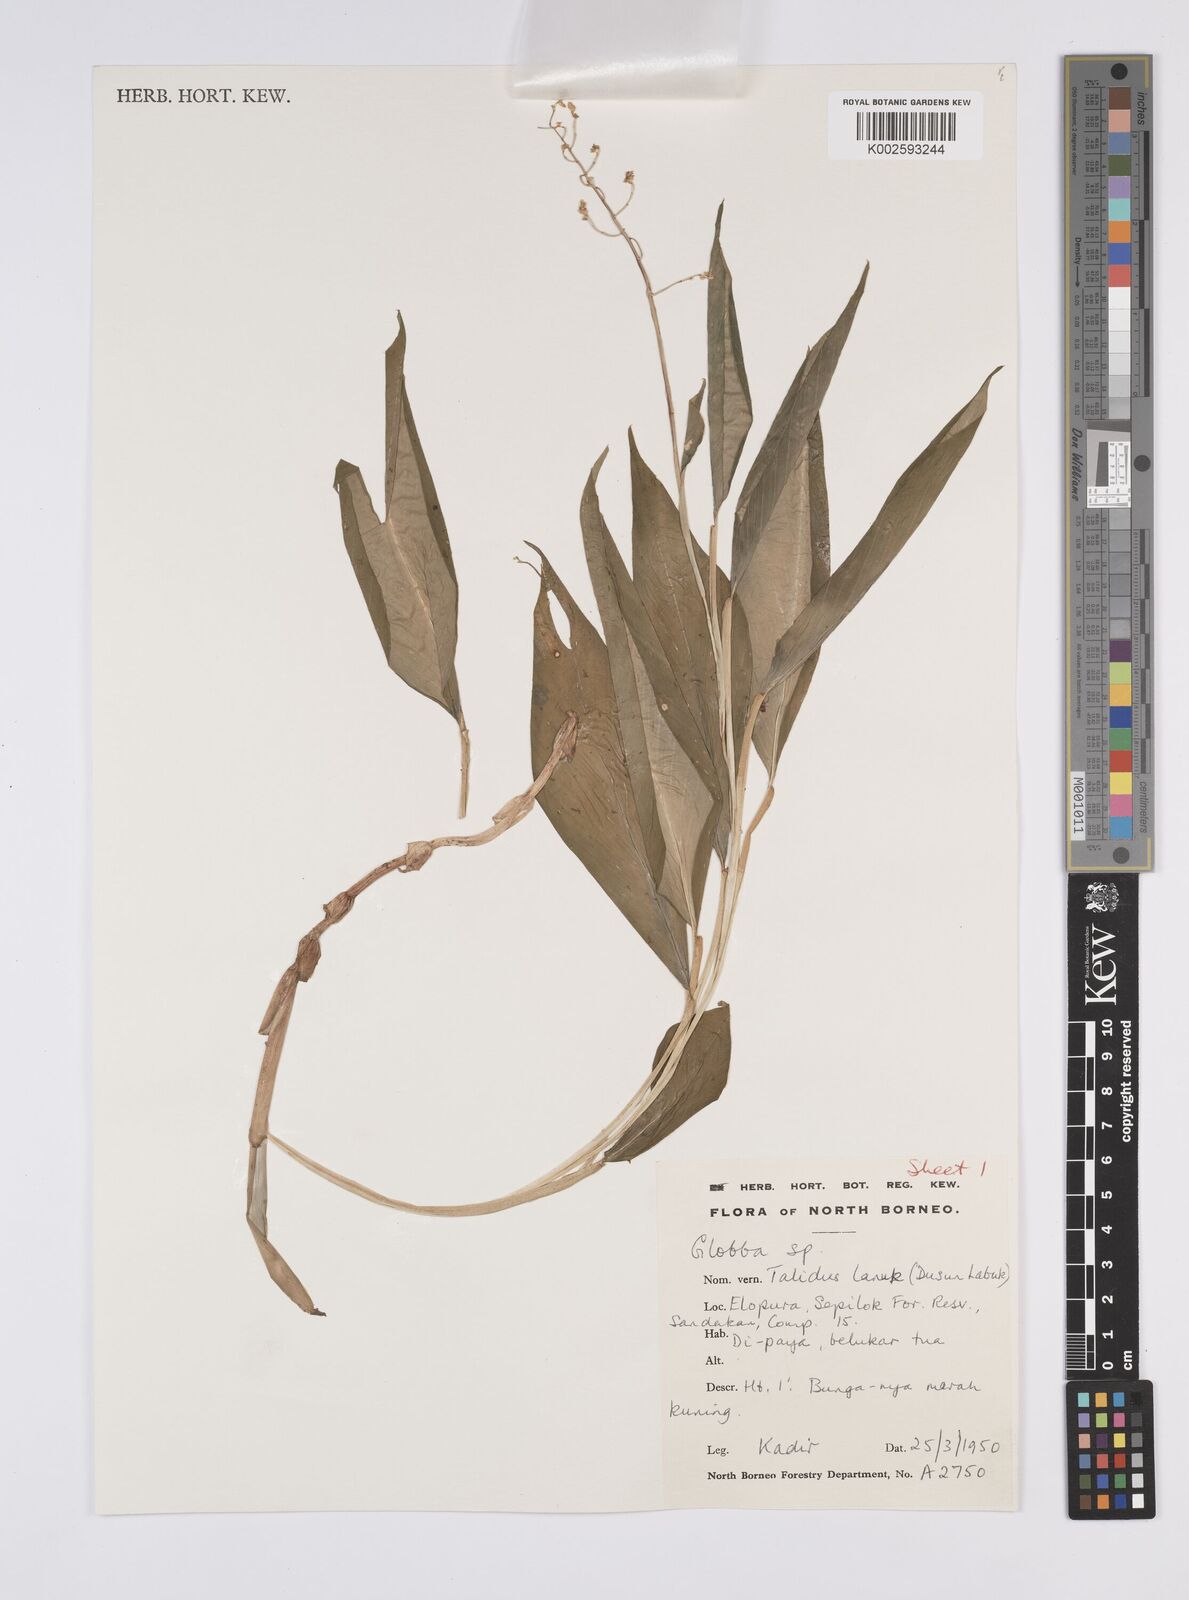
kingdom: Plantae
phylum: Tracheophyta
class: Liliopsida
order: Zingiberales
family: Zingiberaceae
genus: Globba
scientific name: Globba
